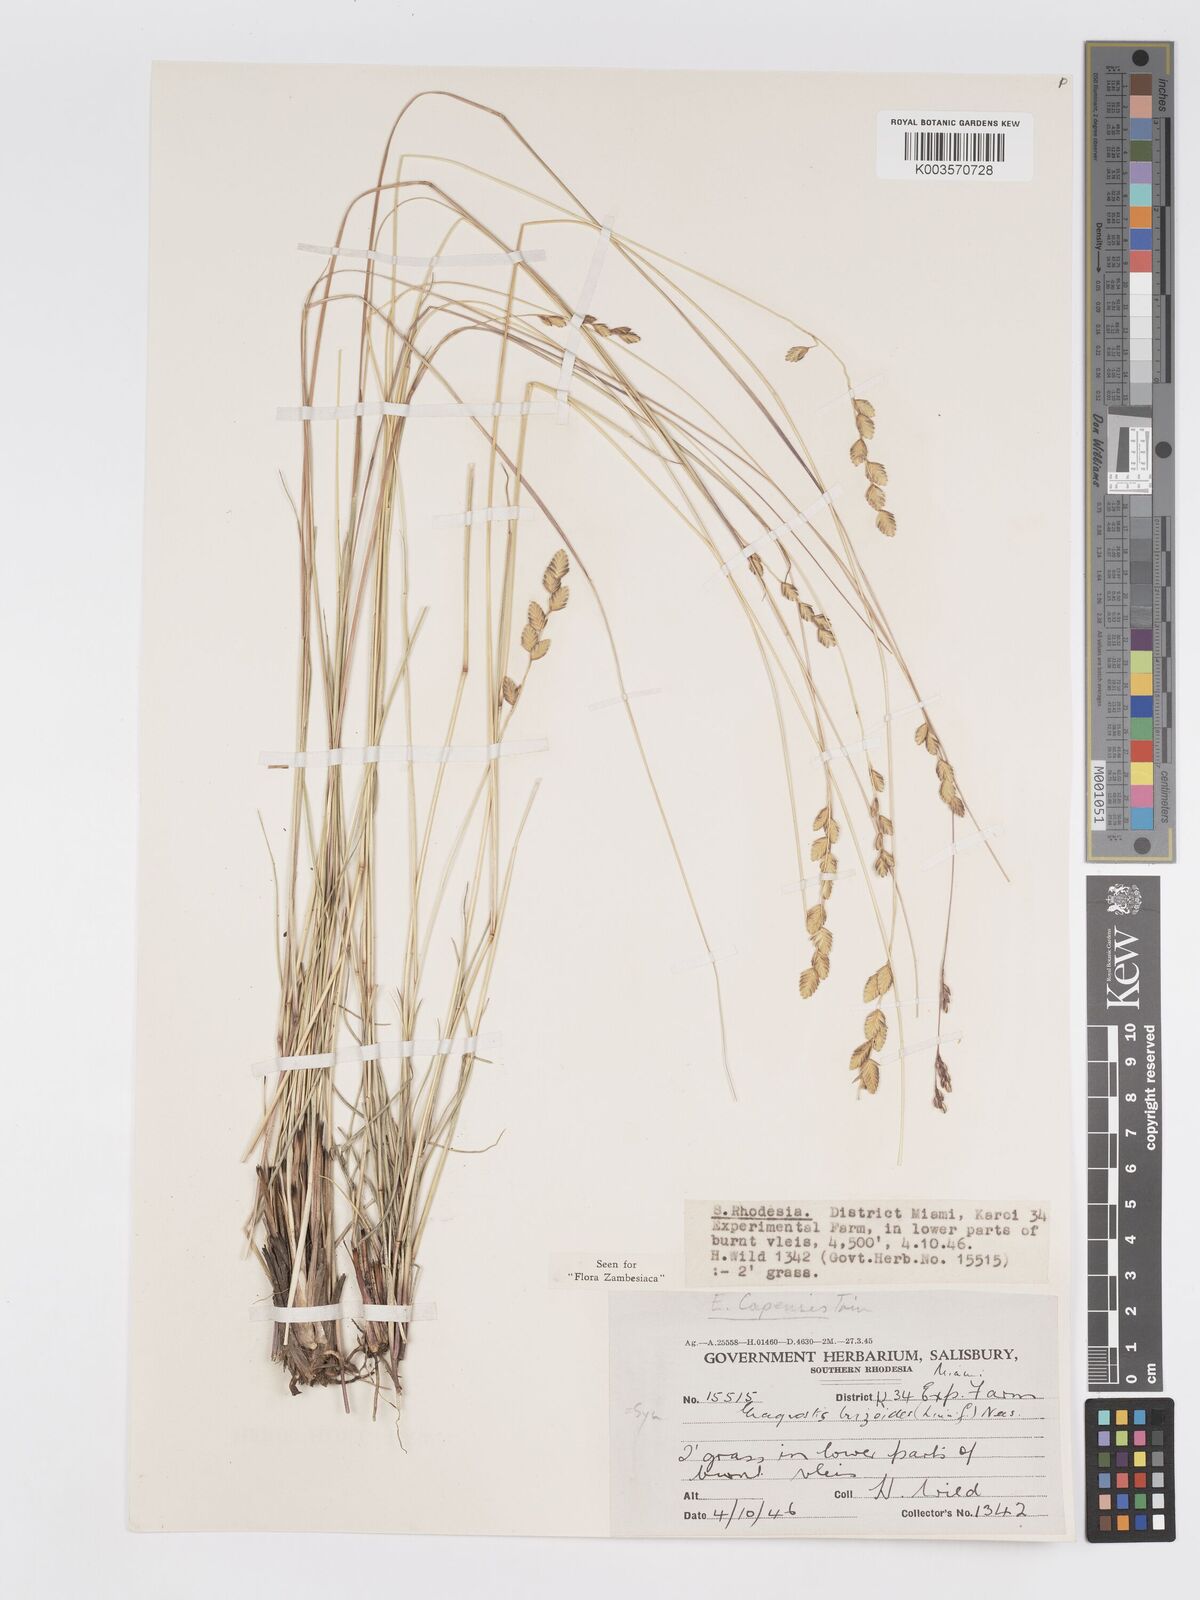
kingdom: Plantae
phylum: Tracheophyta
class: Liliopsida
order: Poales
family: Poaceae
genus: Eragrostis
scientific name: Eragrostis capensis
